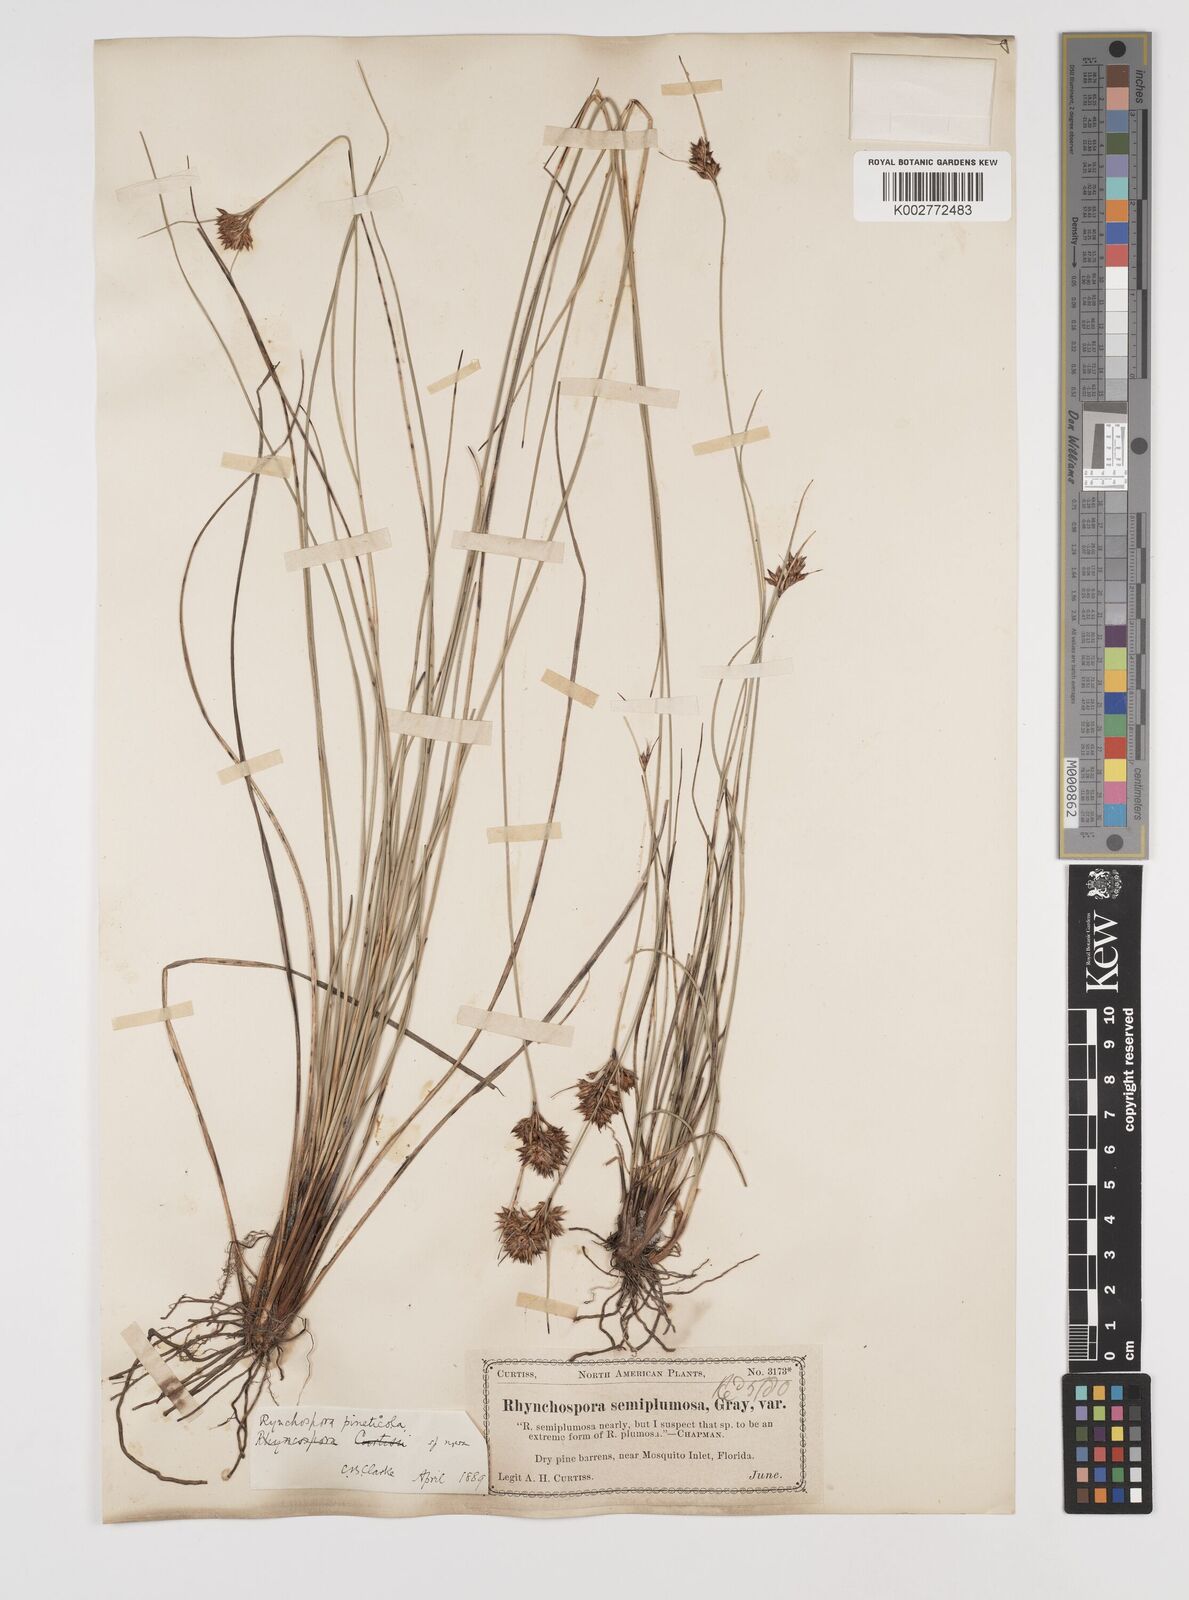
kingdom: Plantae
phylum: Tracheophyta
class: Liliopsida
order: Poales
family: Cyperaceae
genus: Rhynchospora
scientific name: Rhynchospora intermedia
